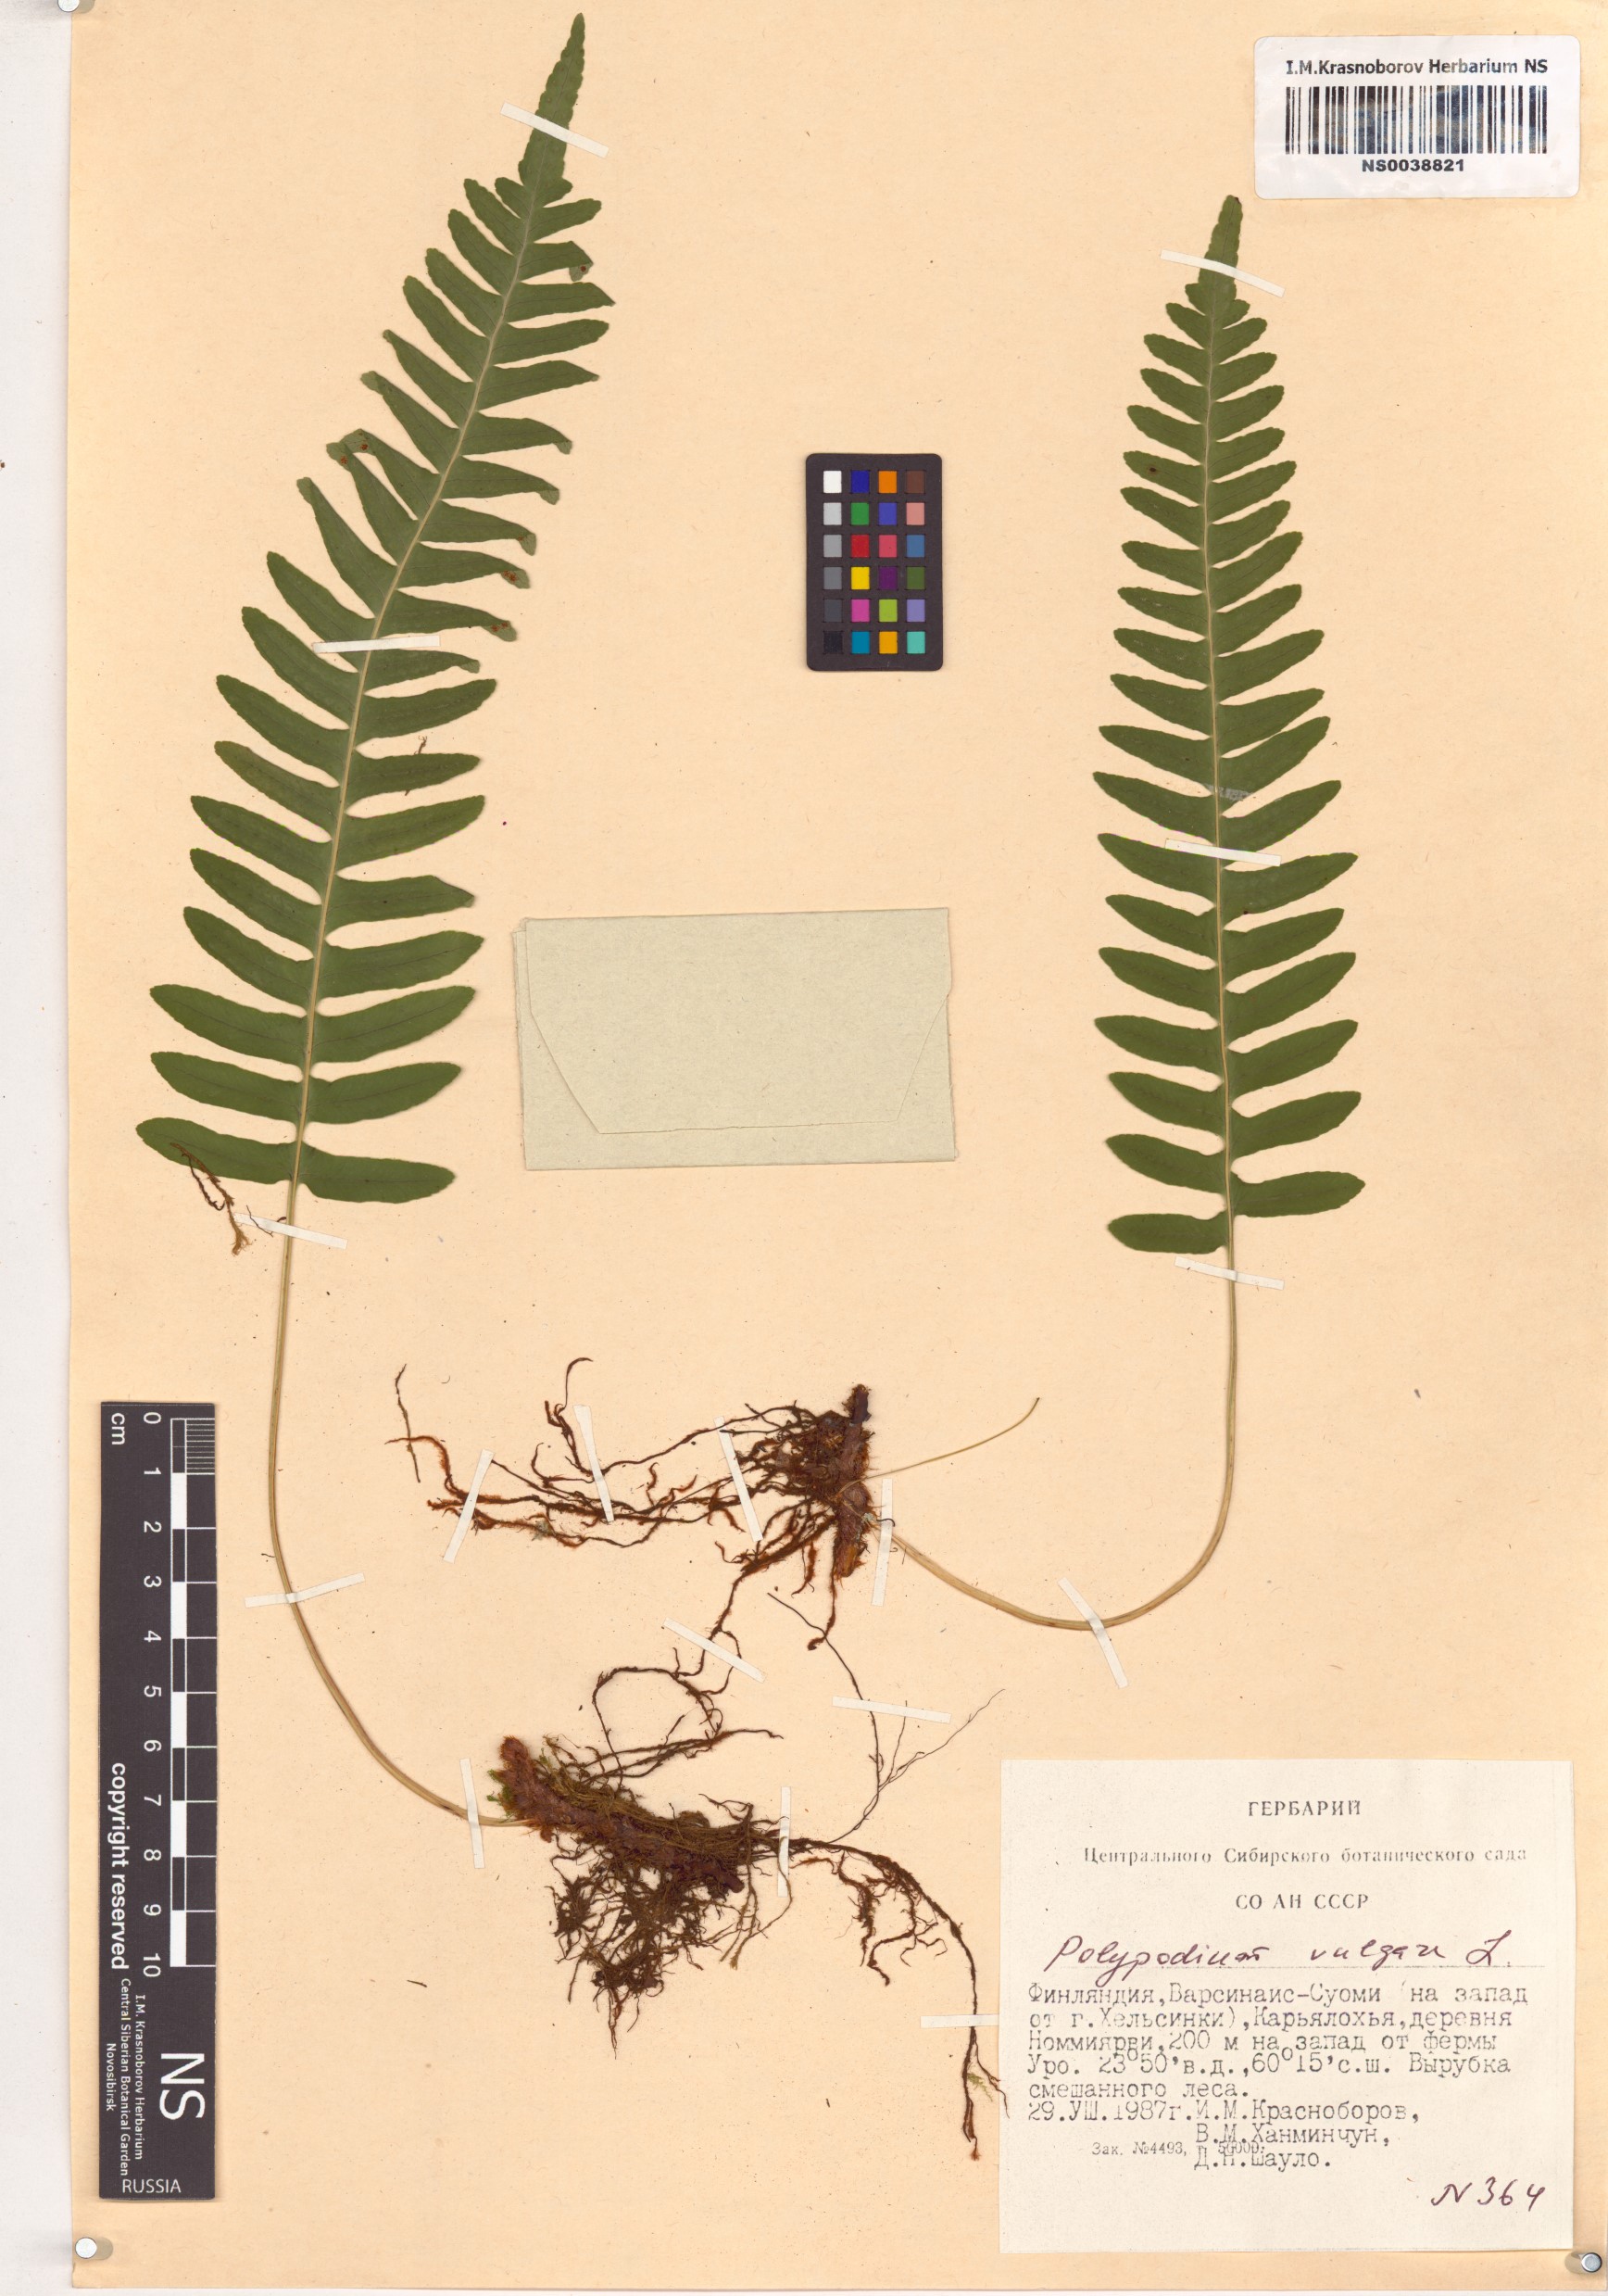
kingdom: Plantae
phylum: Tracheophyta
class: Polypodiopsida
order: Polypodiales
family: Polypodiaceae
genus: Polypodium
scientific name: Polypodium vulgare
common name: Common polypody
